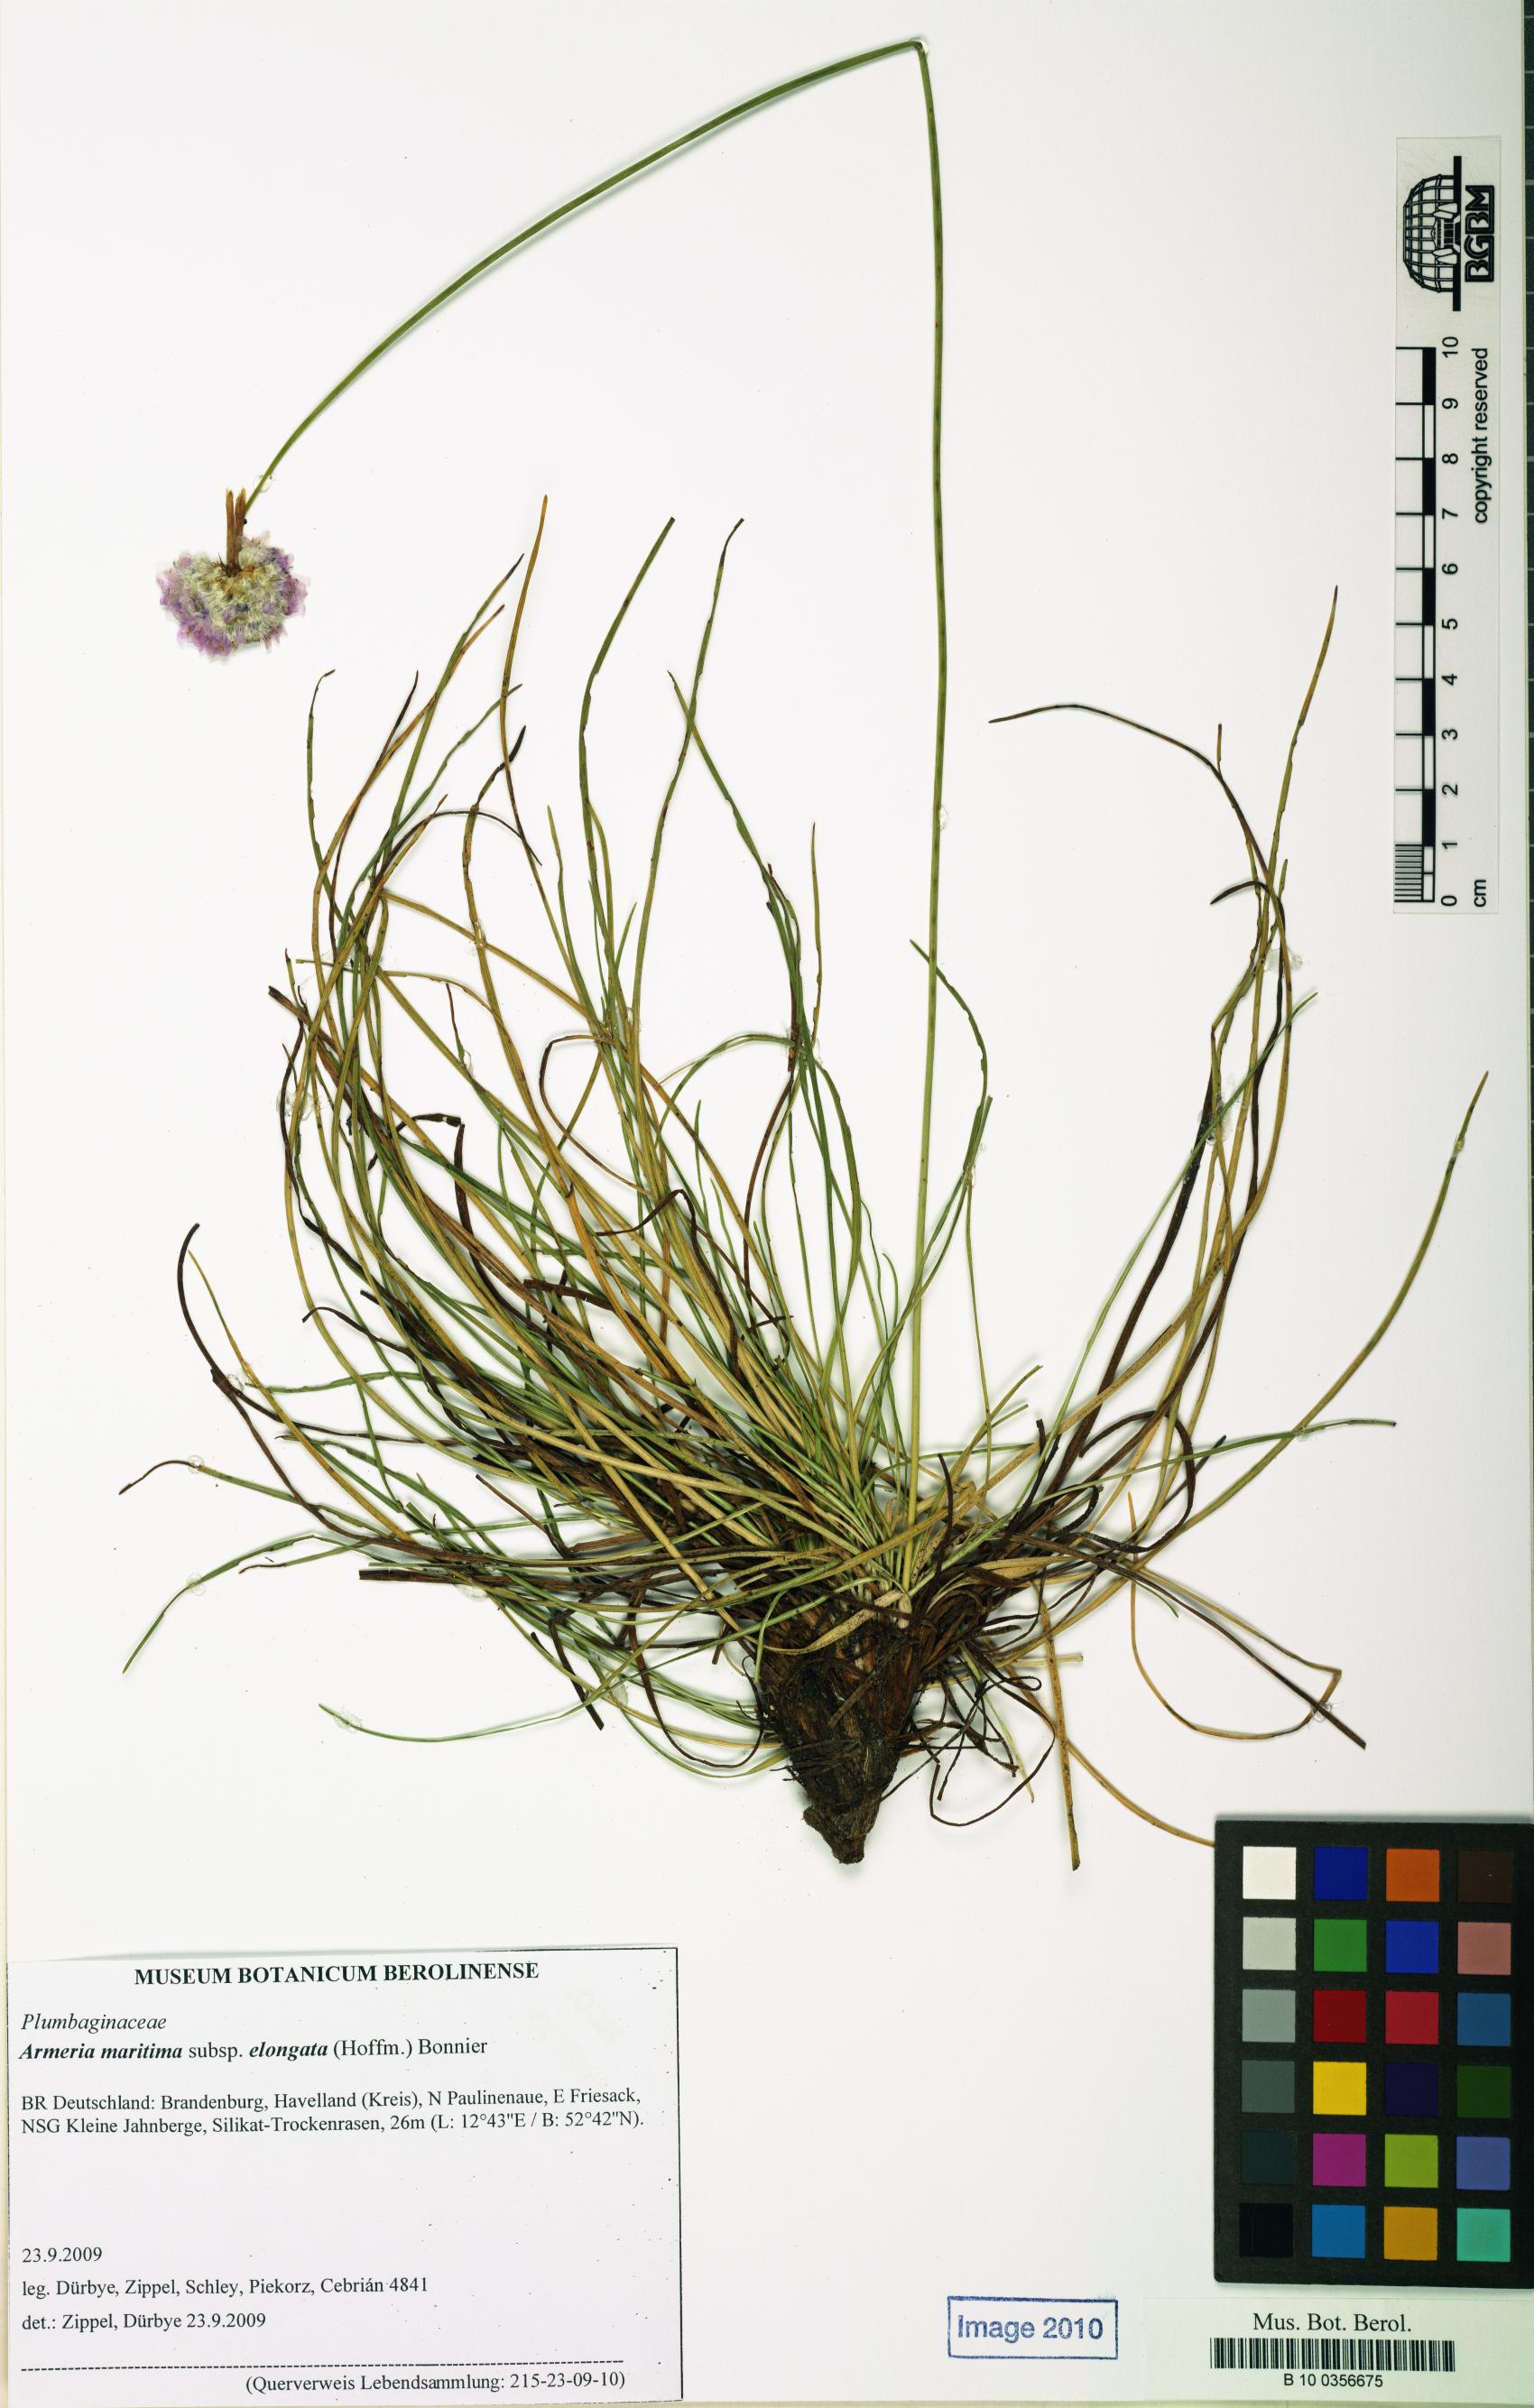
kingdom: Plantae
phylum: Tracheophyta
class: Magnoliopsida
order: Caryophyllales
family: Plumbaginaceae
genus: Armeria
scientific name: Armeria maritima
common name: Thrift
